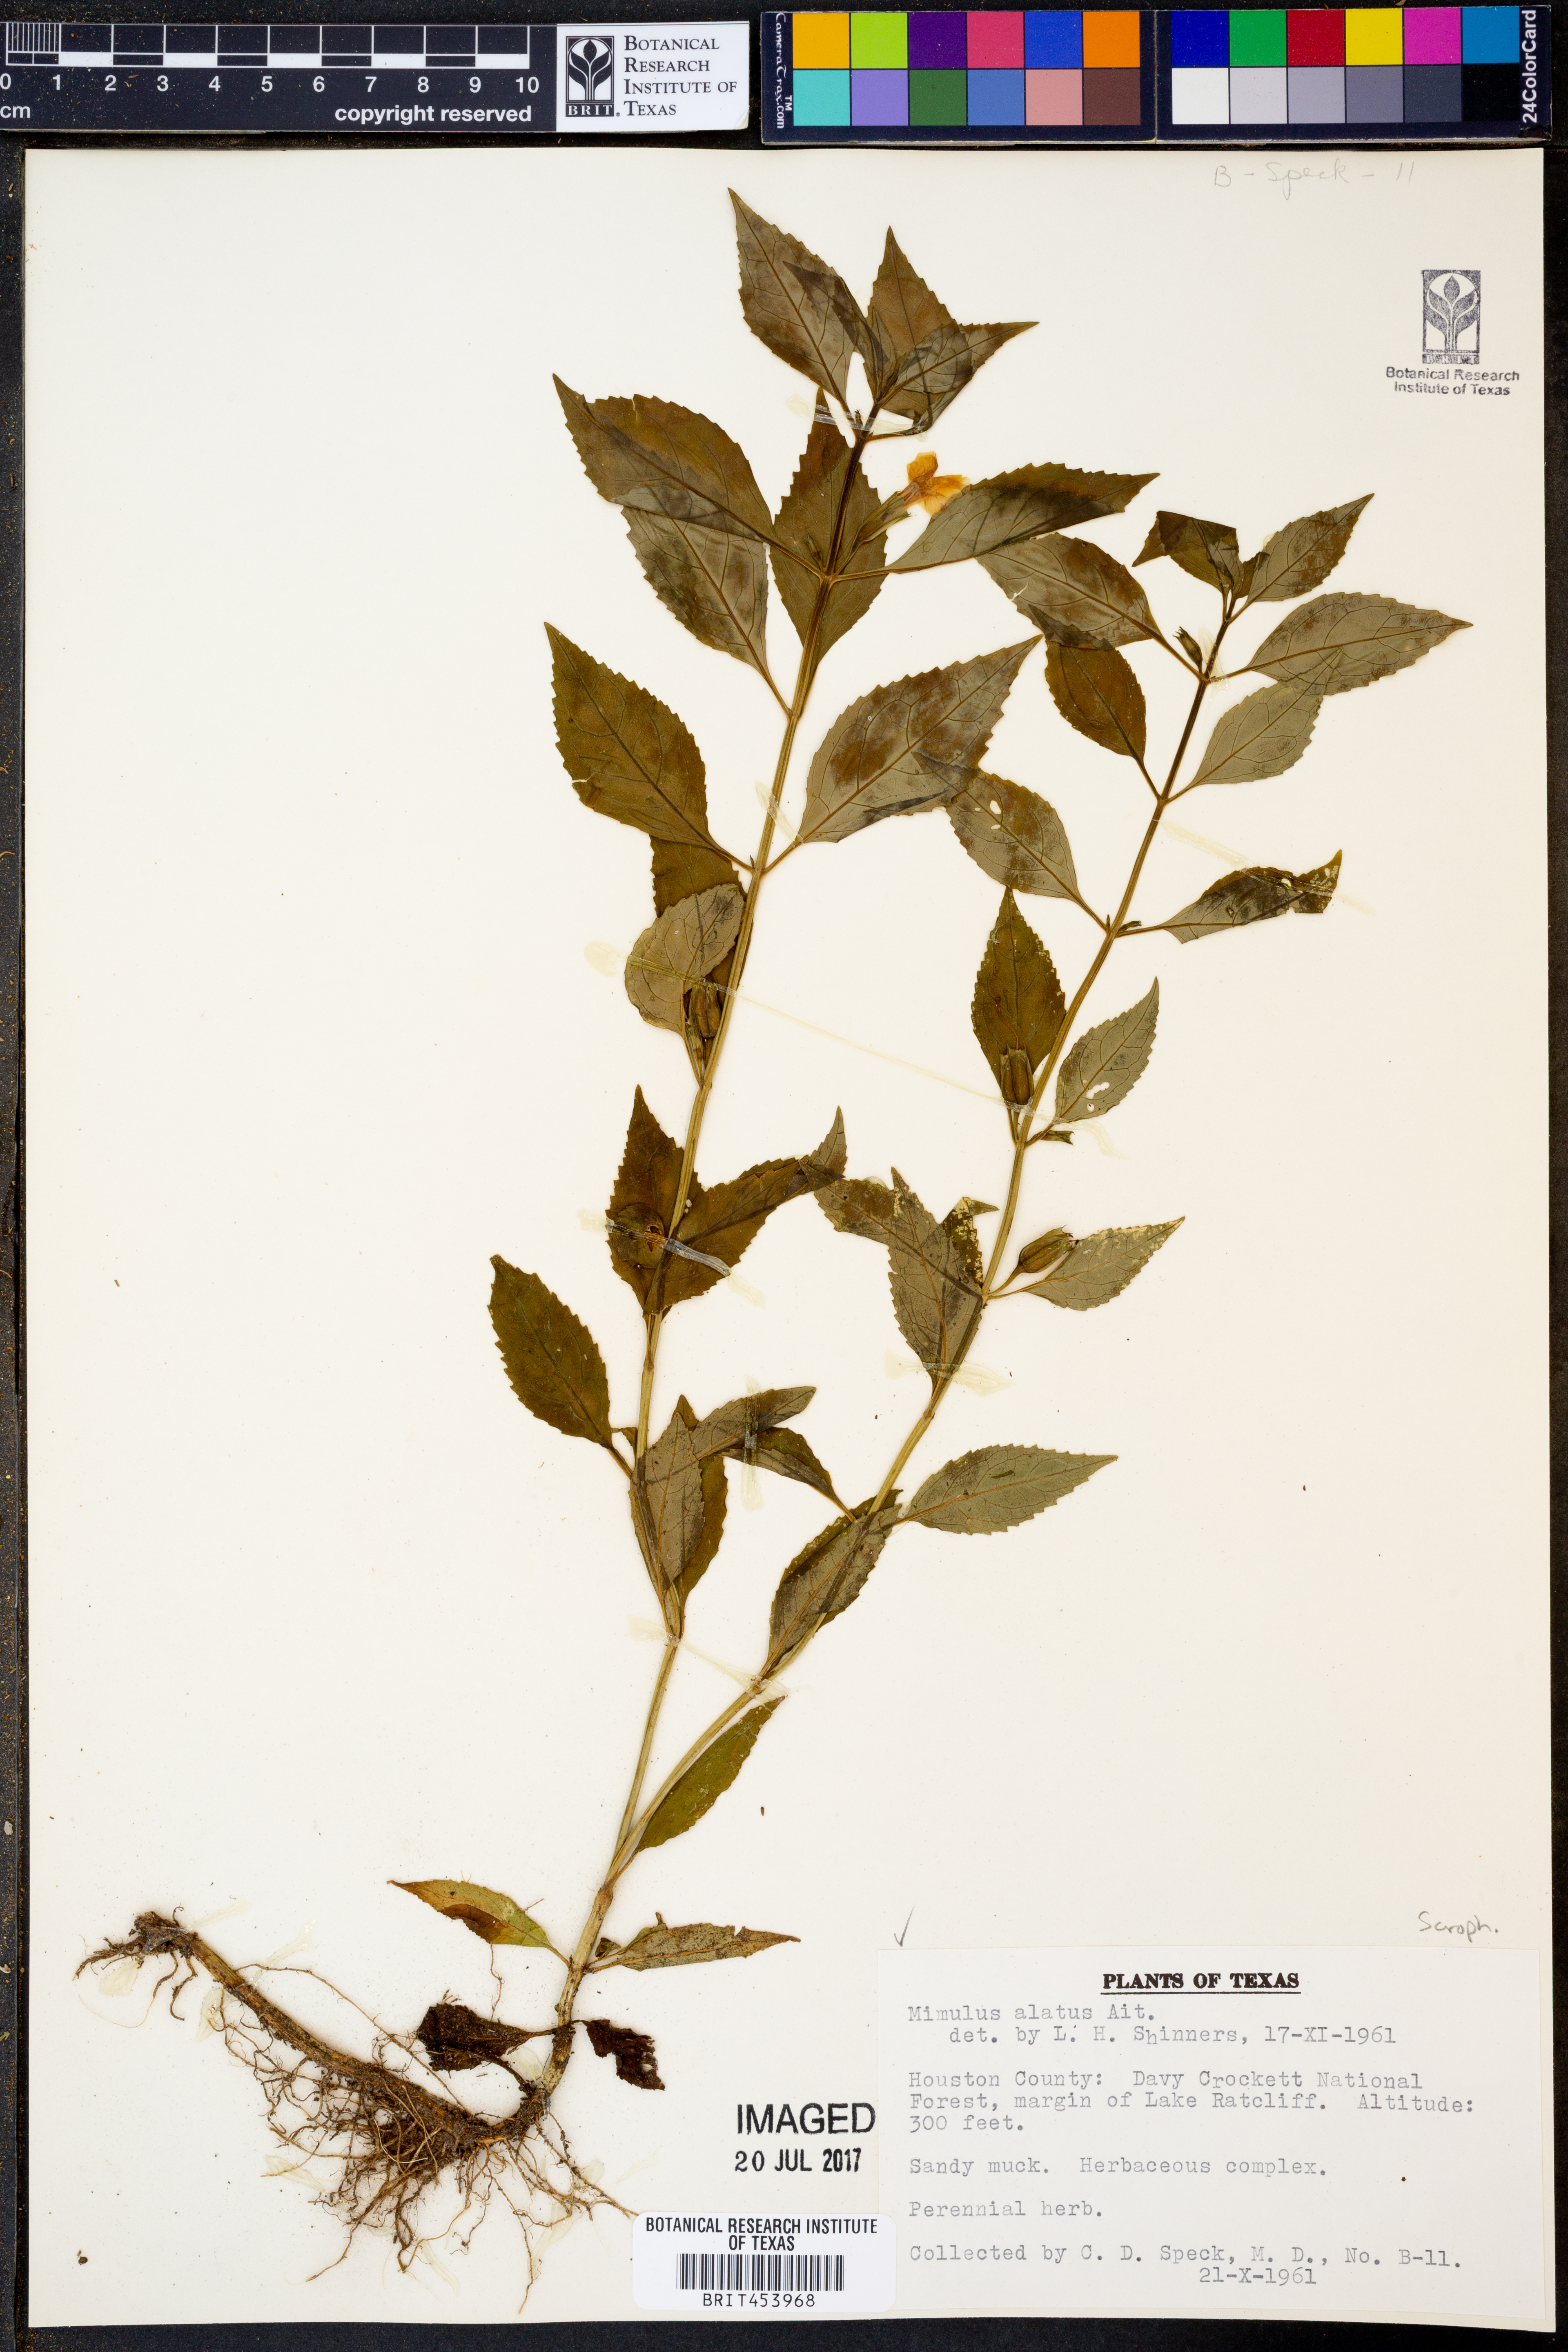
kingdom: Plantae
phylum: Tracheophyta
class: Magnoliopsida
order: Lamiales
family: Phrymaceae
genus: Mimulus
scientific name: Mimulus alatus
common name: Sharp-wing monkey-flower
